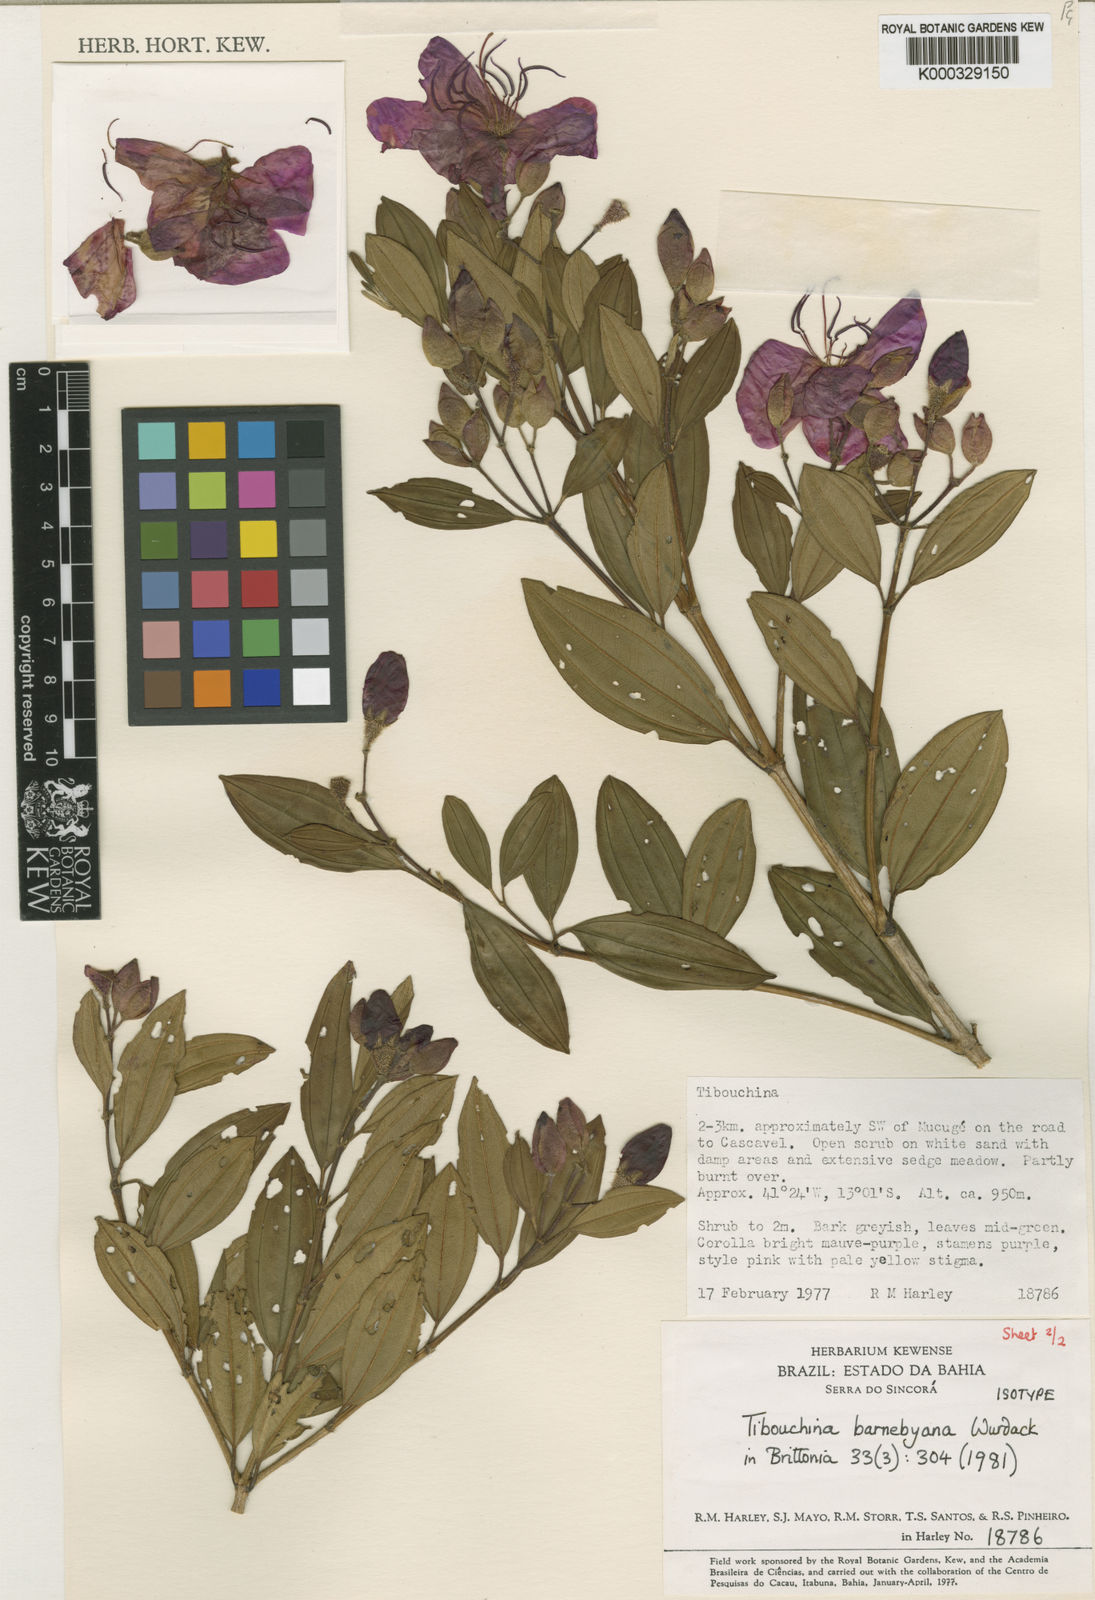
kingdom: Plantae
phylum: Tracheophyta
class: Magnoliopsida
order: Myrtales
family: Melastomataceae
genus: Pleroma
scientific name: Pleroma barnebyanum
